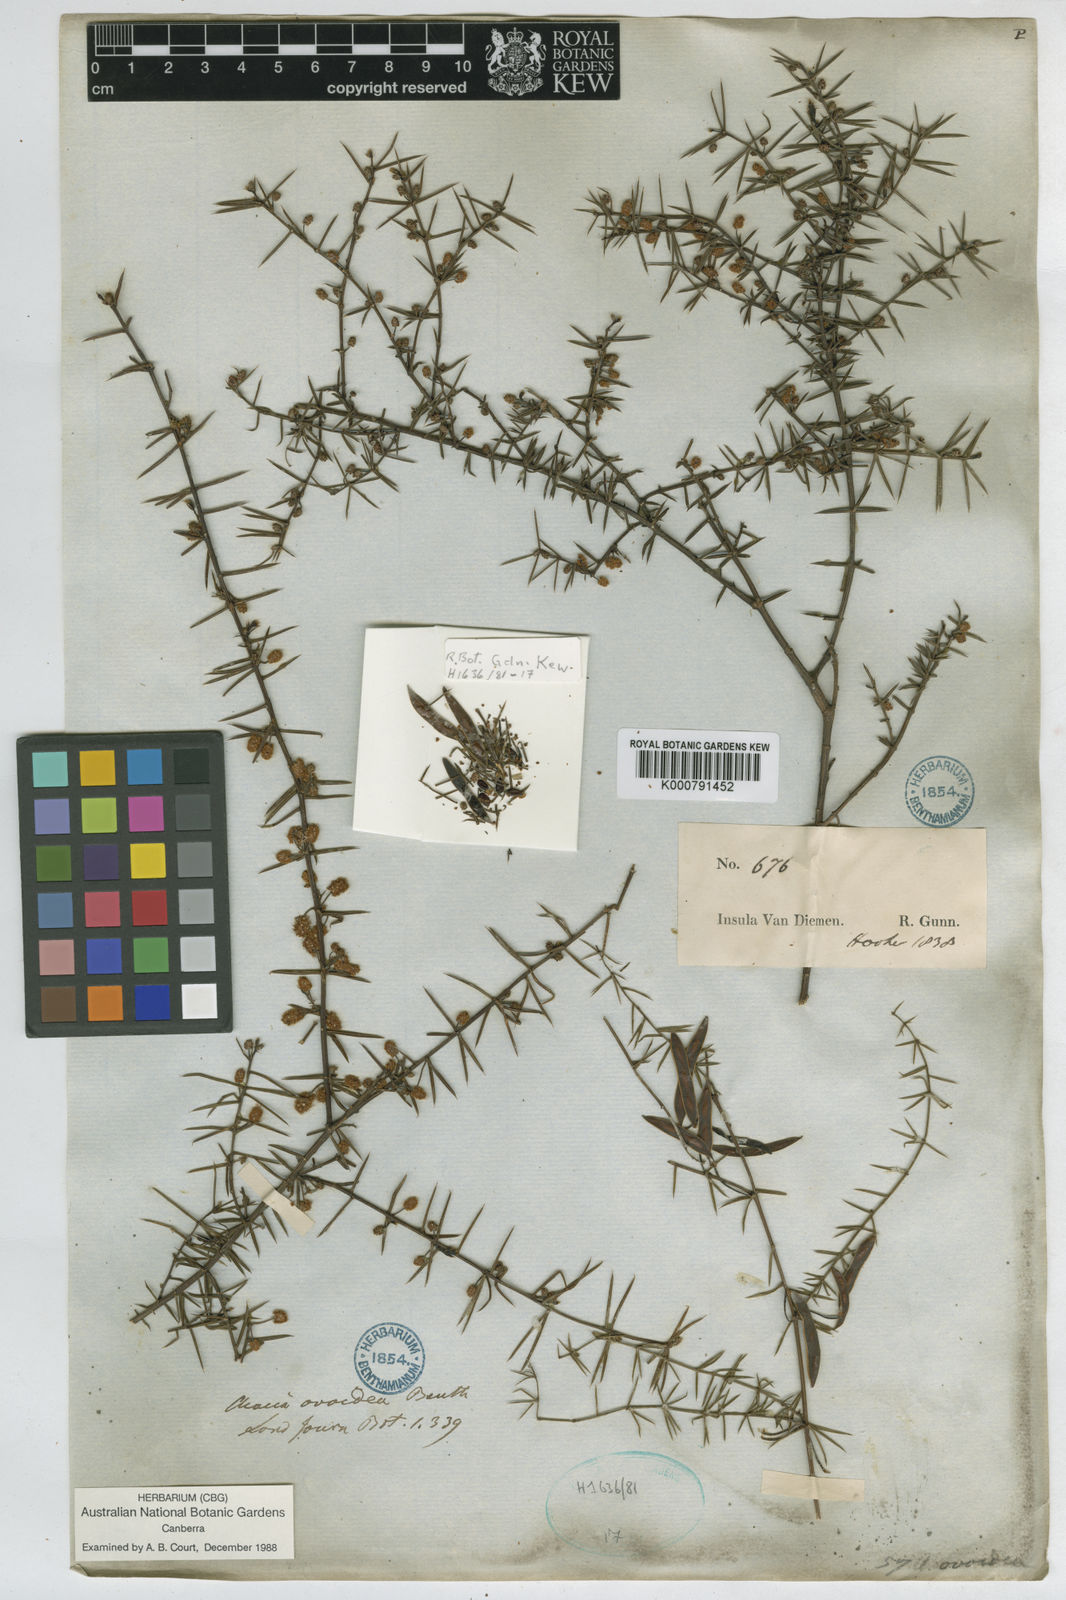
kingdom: Plantae
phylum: Tracheophyta
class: Magnoliopsida
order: Fabales
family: Fabaceae
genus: Acacia
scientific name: Acacia verticillata
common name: Prickly moses
